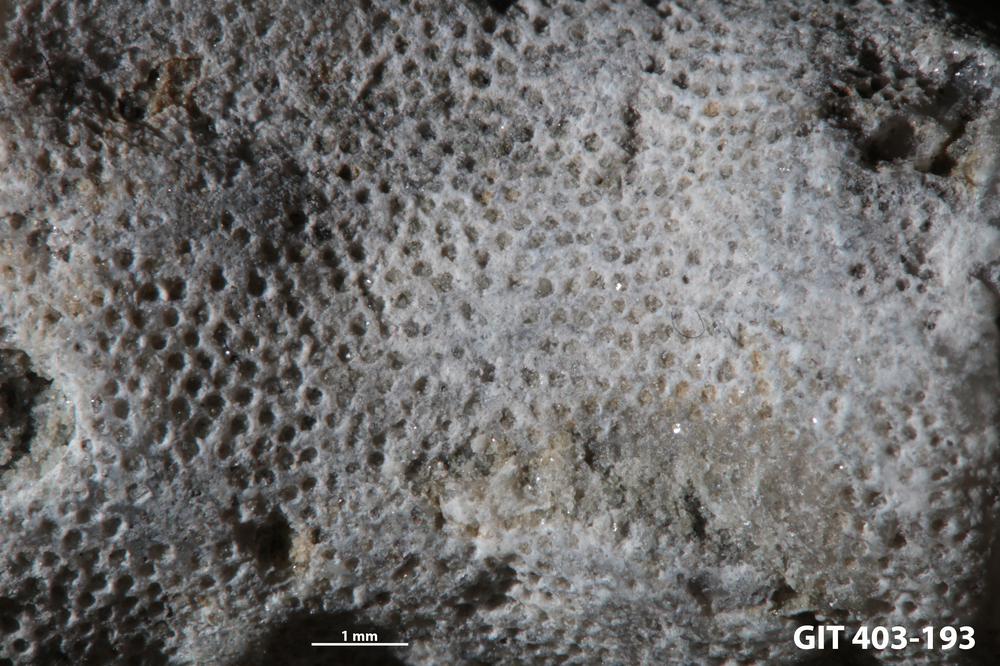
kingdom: Animalia
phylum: Bryozoa
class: Stenolaemata
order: Cystoporida
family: Fistuliporidae
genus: Fistulipora
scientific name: Fistulipora przhidolensis
